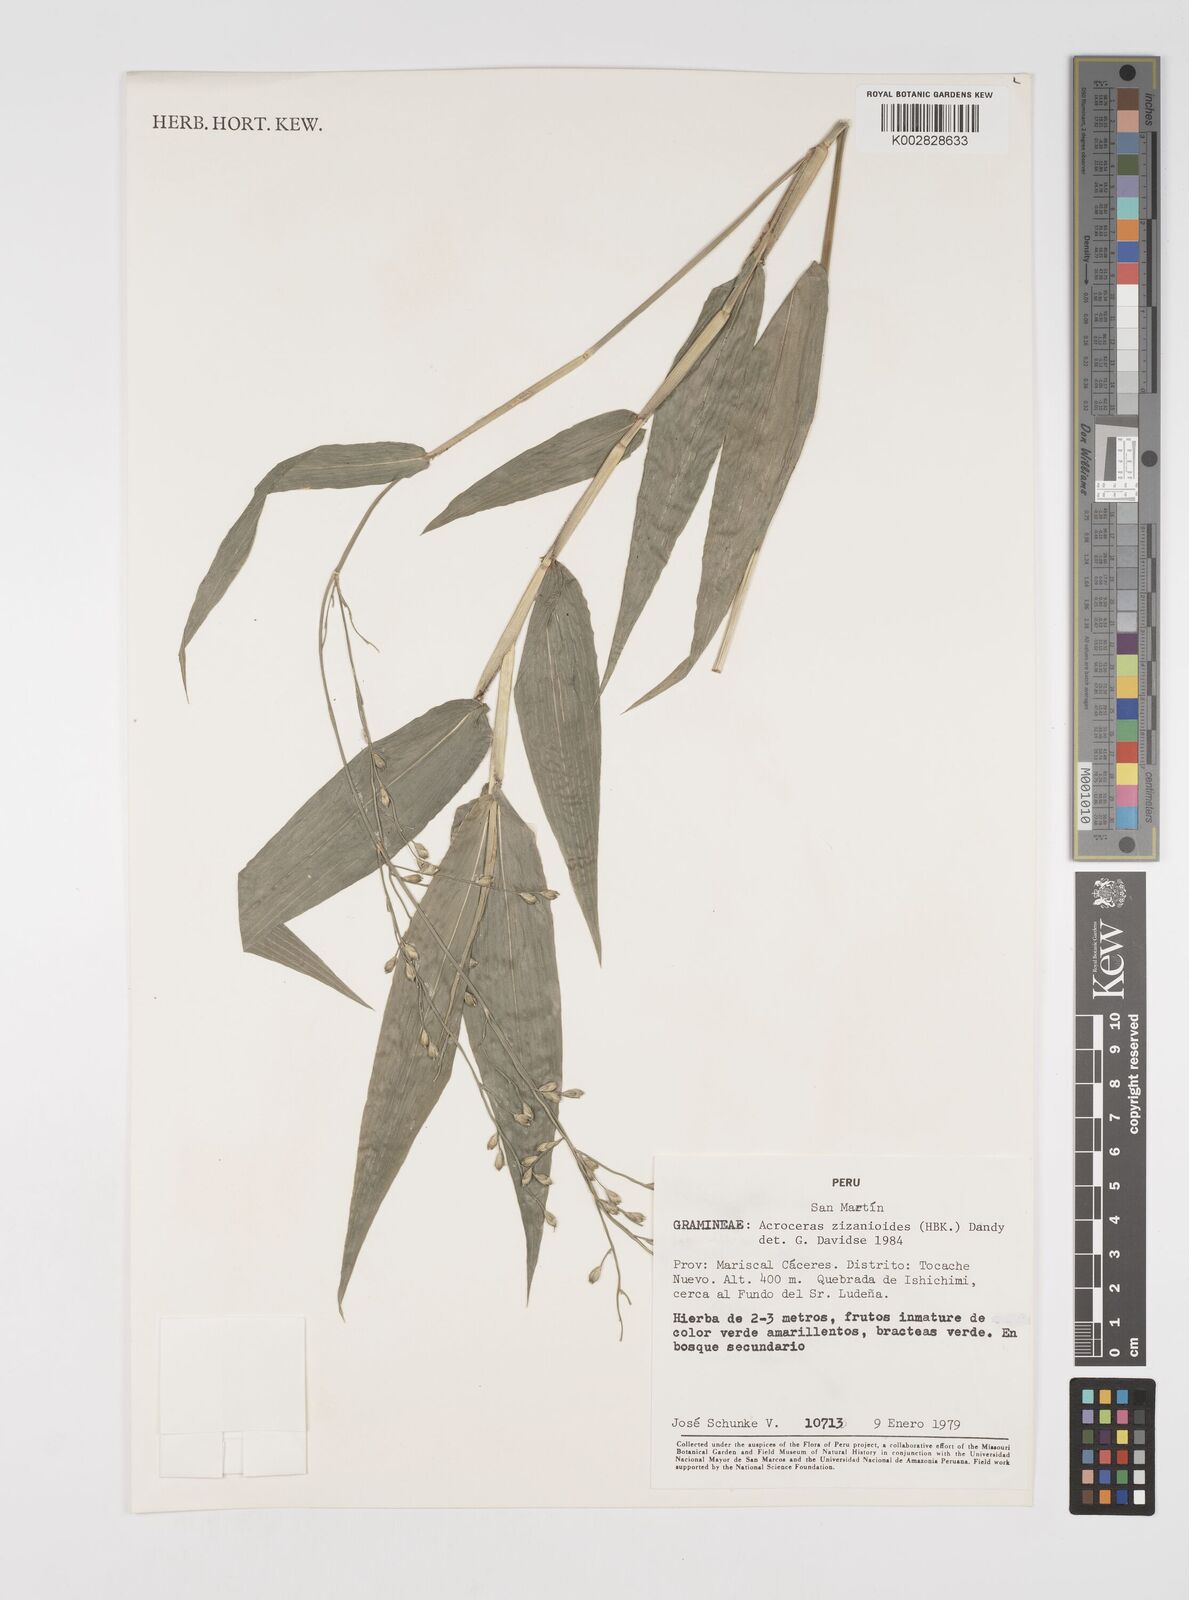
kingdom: Plantae
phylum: Tracheophyta
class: Liliopsida
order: Poales
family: Poaceae
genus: Acroceras
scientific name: Acroceras zizanioides
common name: Oat grass
